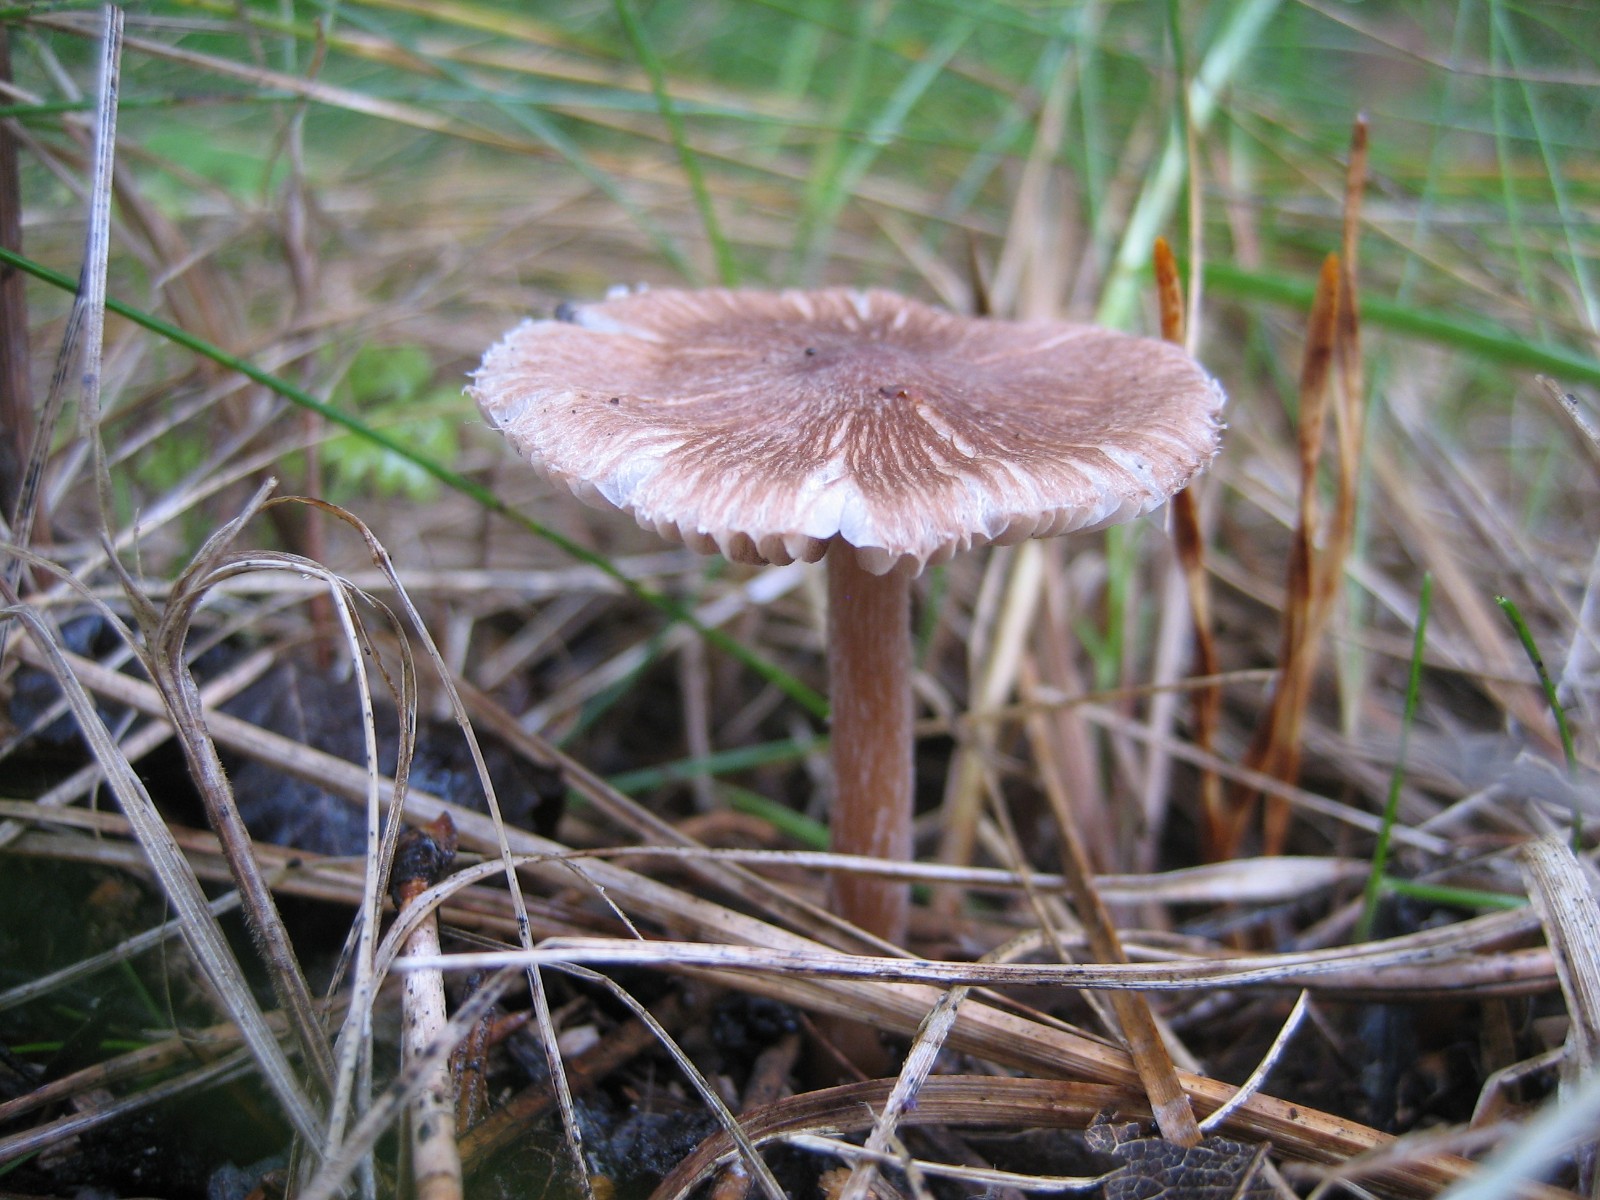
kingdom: Fungi
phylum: Basidiomycota
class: Agaricomycetes
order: Agaricales
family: Inocybaceae
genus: Inocybe
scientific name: Inocybe
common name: trævlhat
